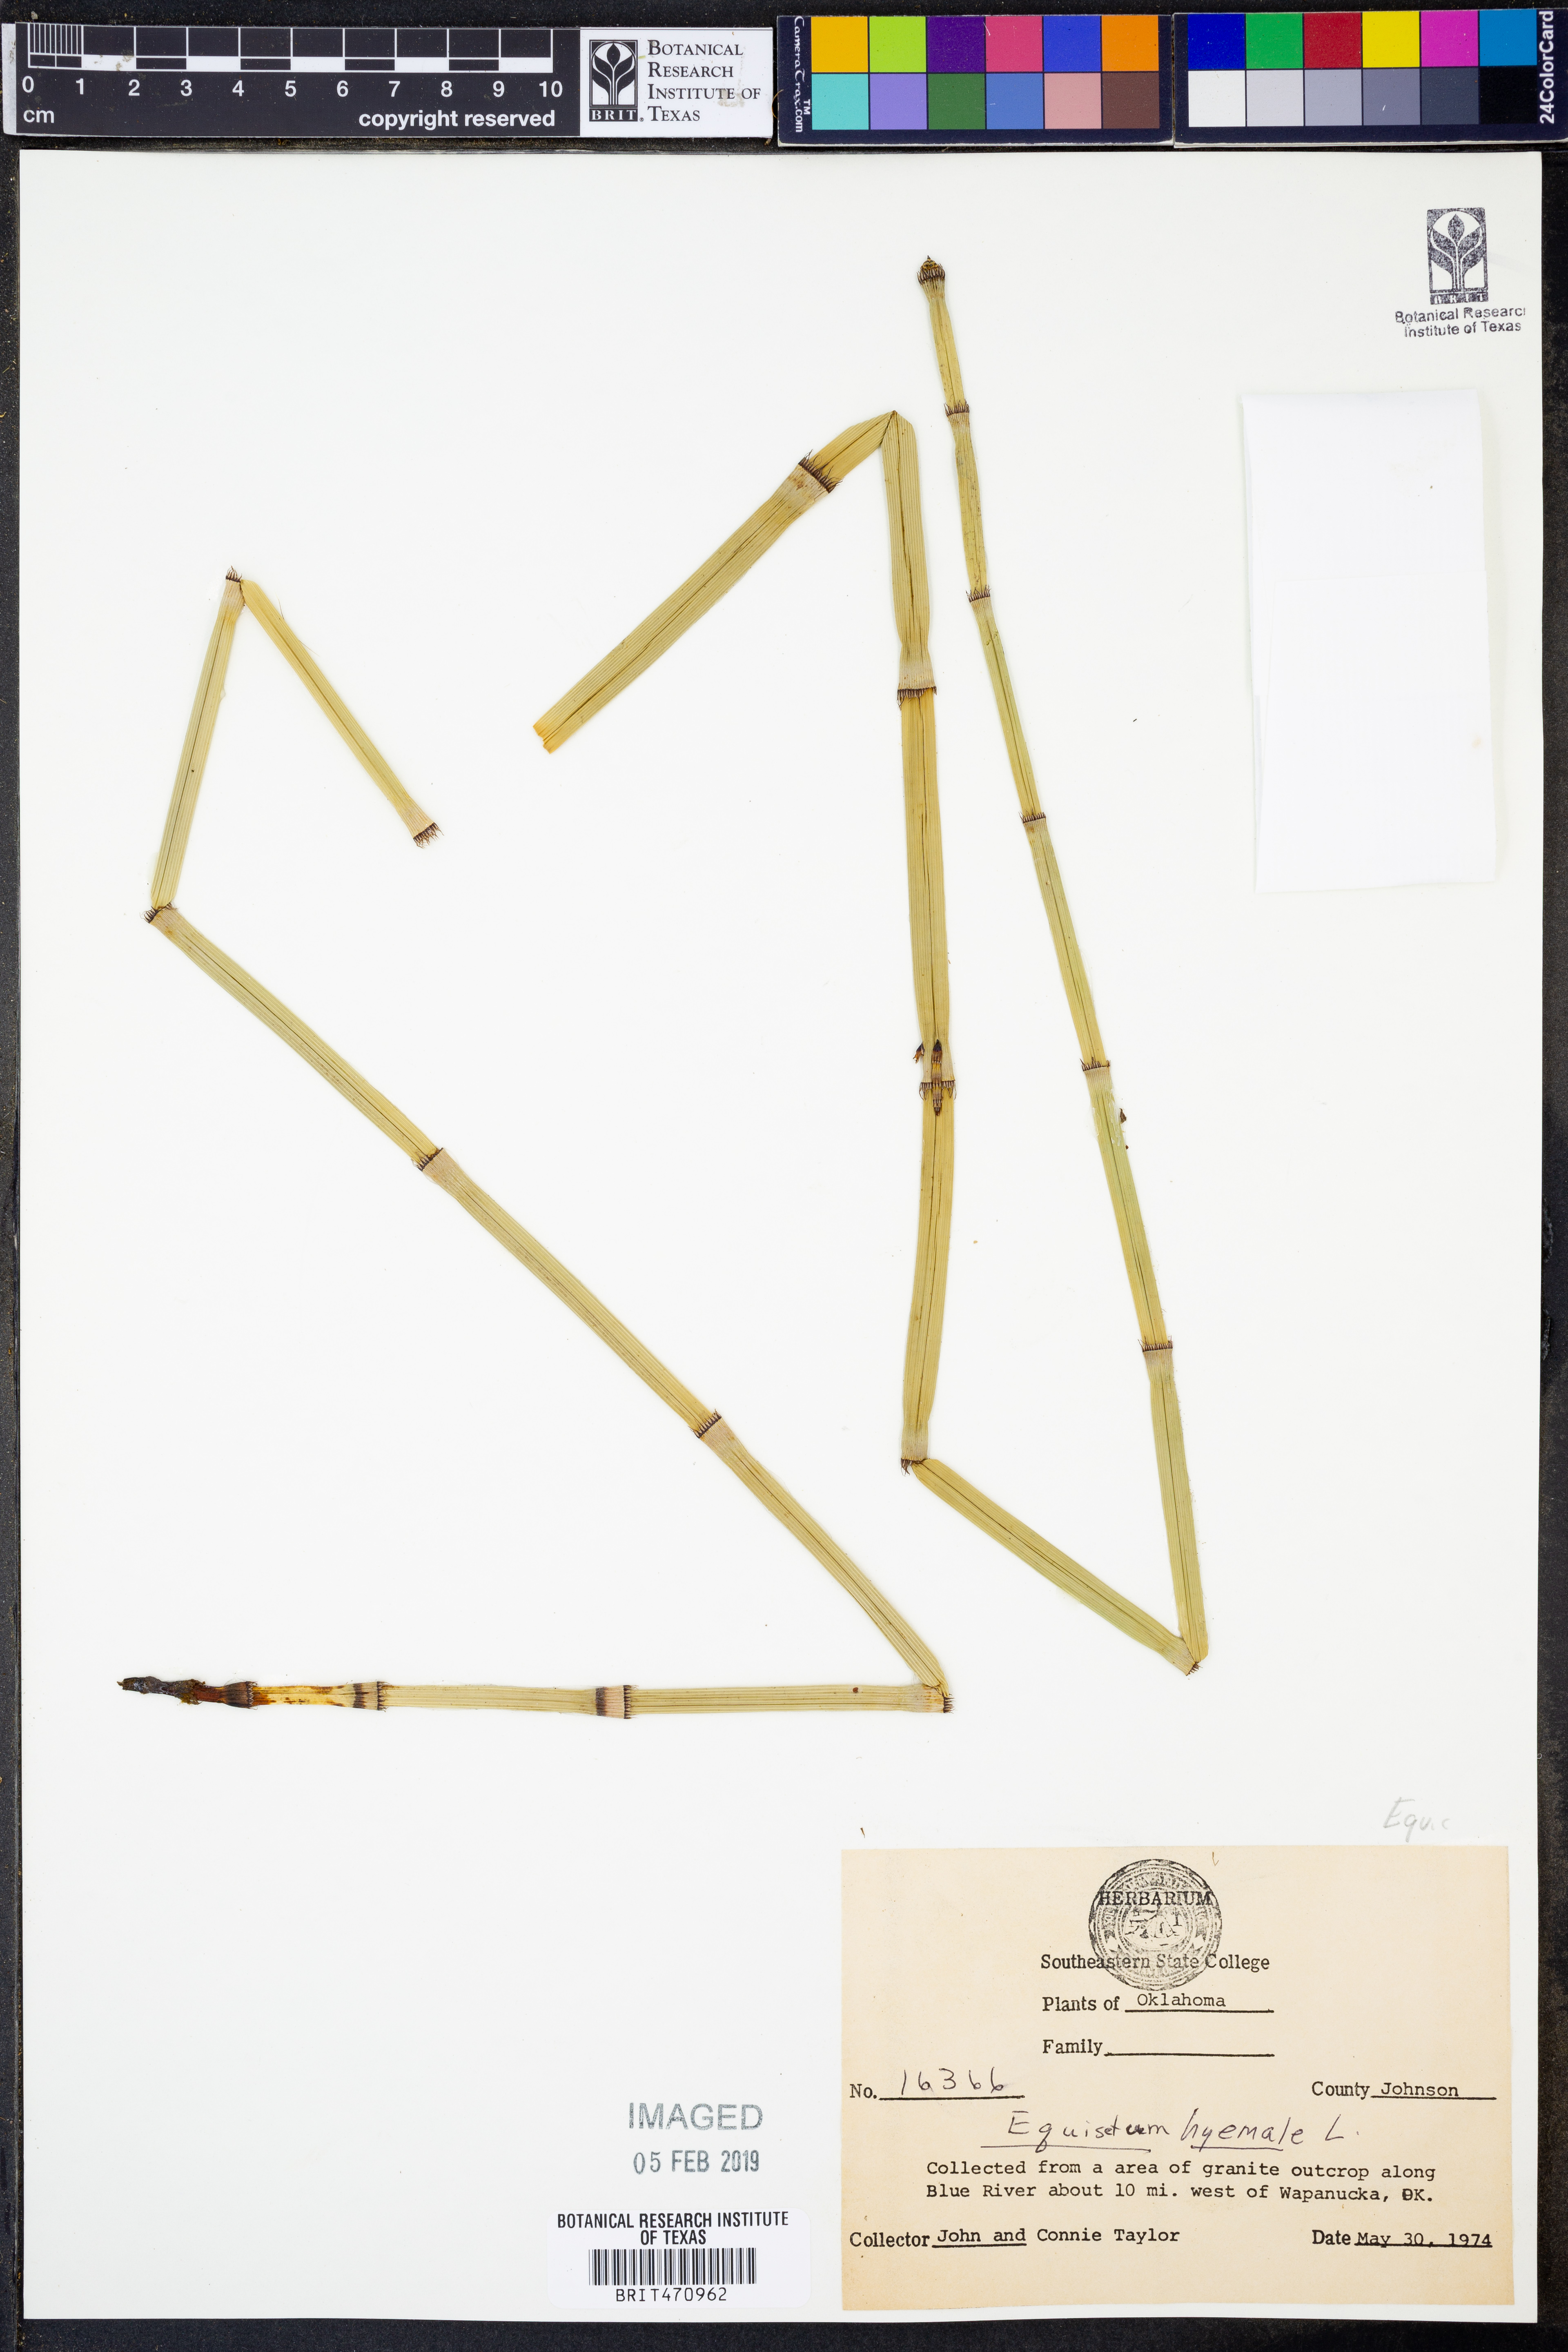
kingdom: Plantae
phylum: Tracheophyta
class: Polypodiopsida
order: Equisetales
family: Equisetaceae
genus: Equisetum
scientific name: Equisetum hyemale
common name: Rough horsetail
